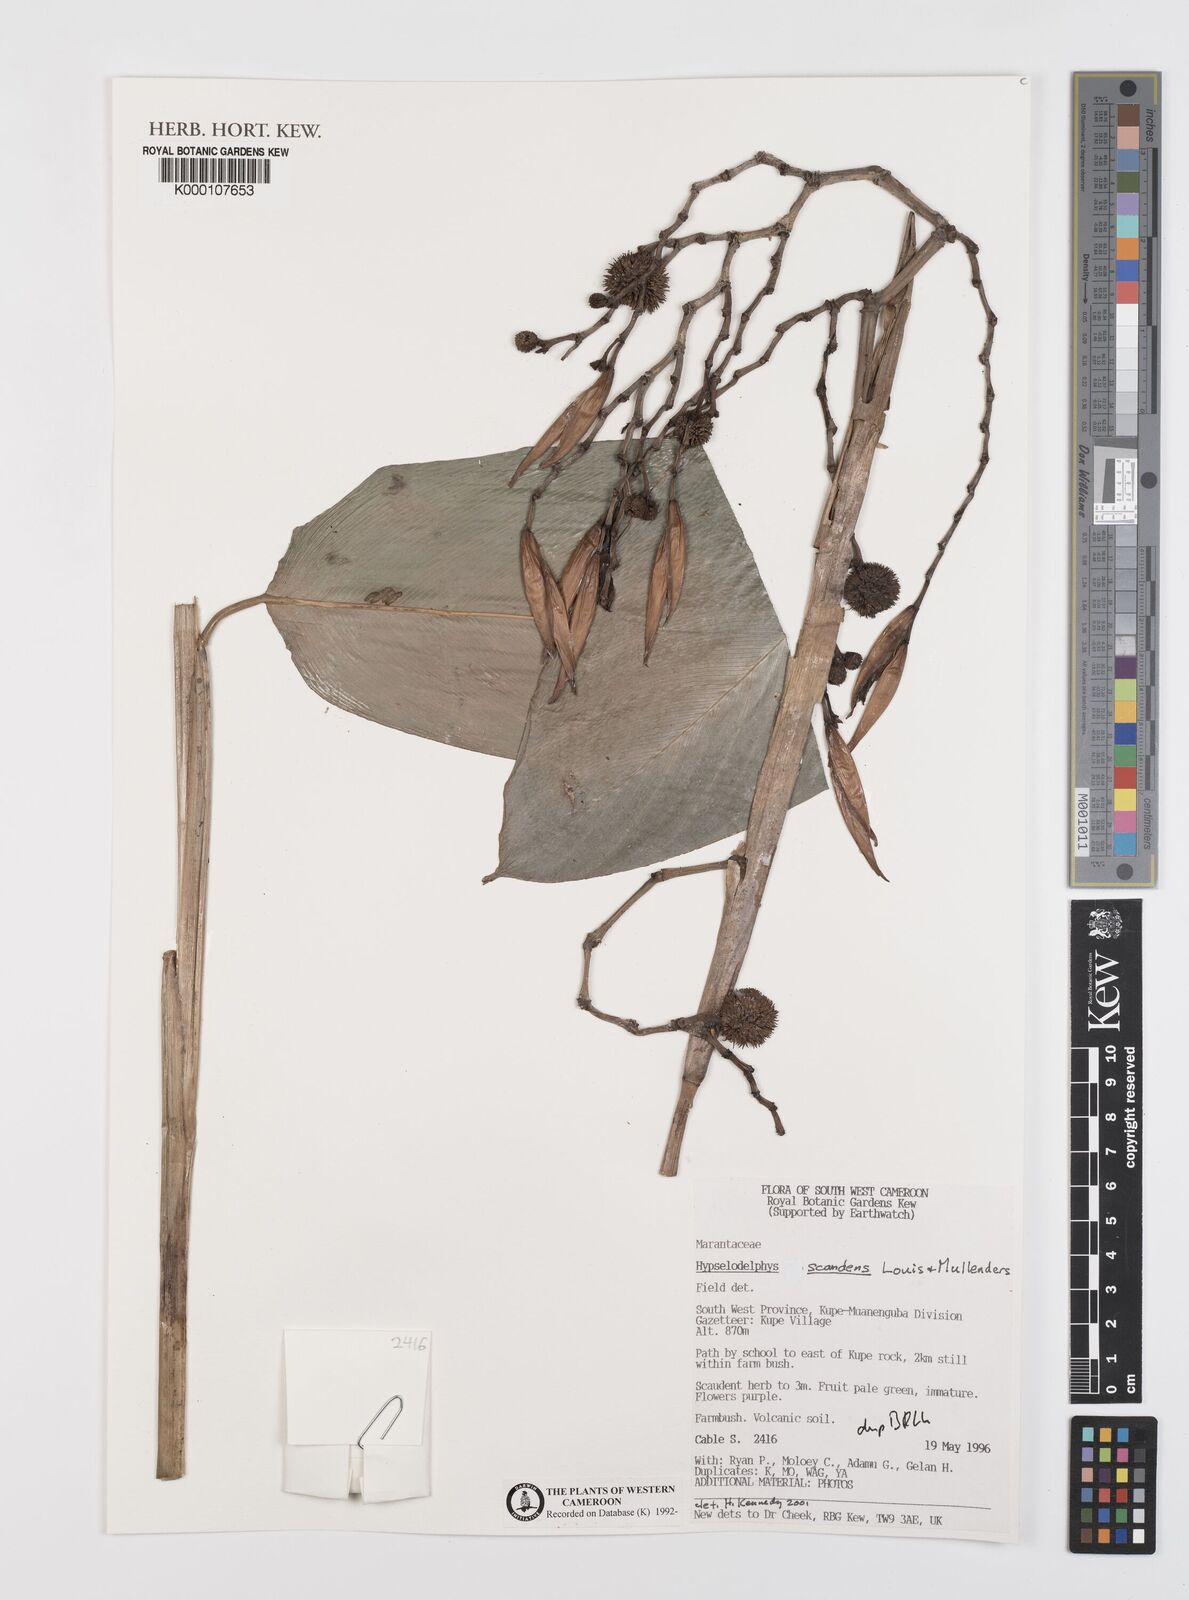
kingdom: Plantae
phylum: Tracheophyta
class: Liliopsida
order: Zingiberales
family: Marantaceae
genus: Hypselodelphys
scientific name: Hypselodelphys scandens
